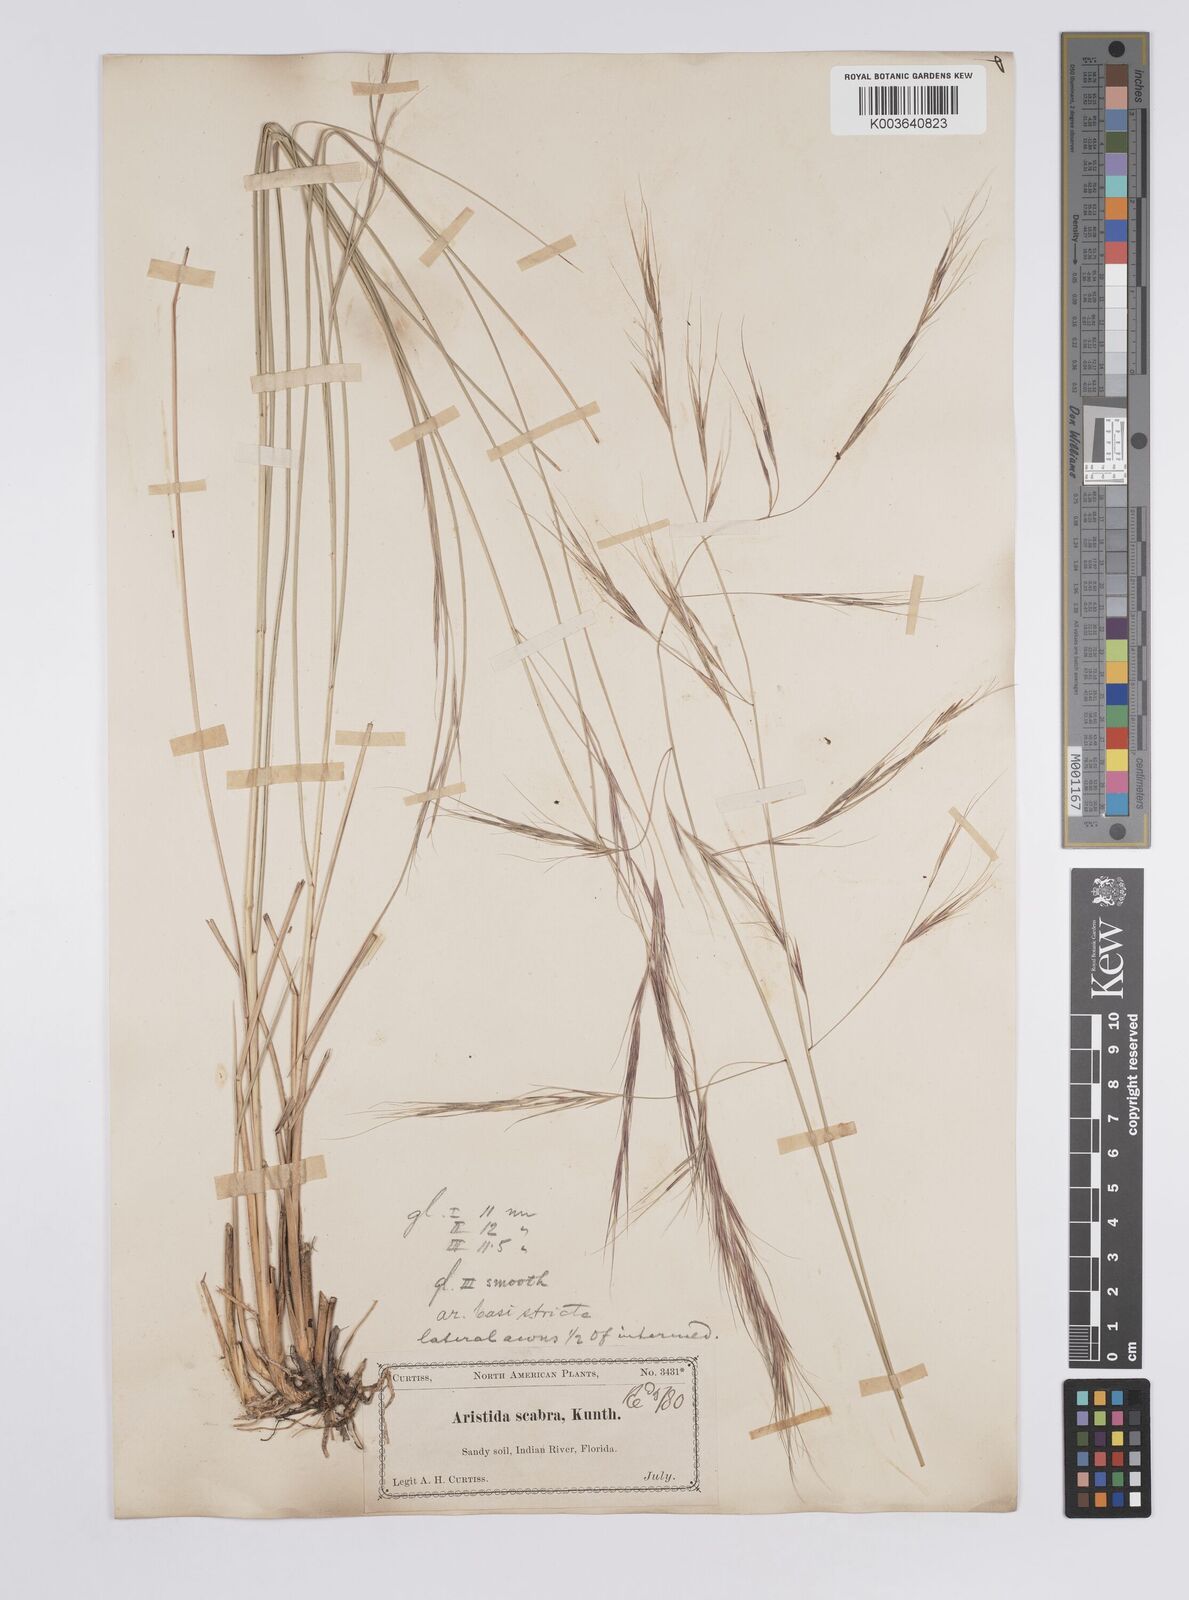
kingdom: Plantae
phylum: Tracheophyta
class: Liliopsida
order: Poales
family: Poaceae
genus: Aristida
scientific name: Aristida patula
